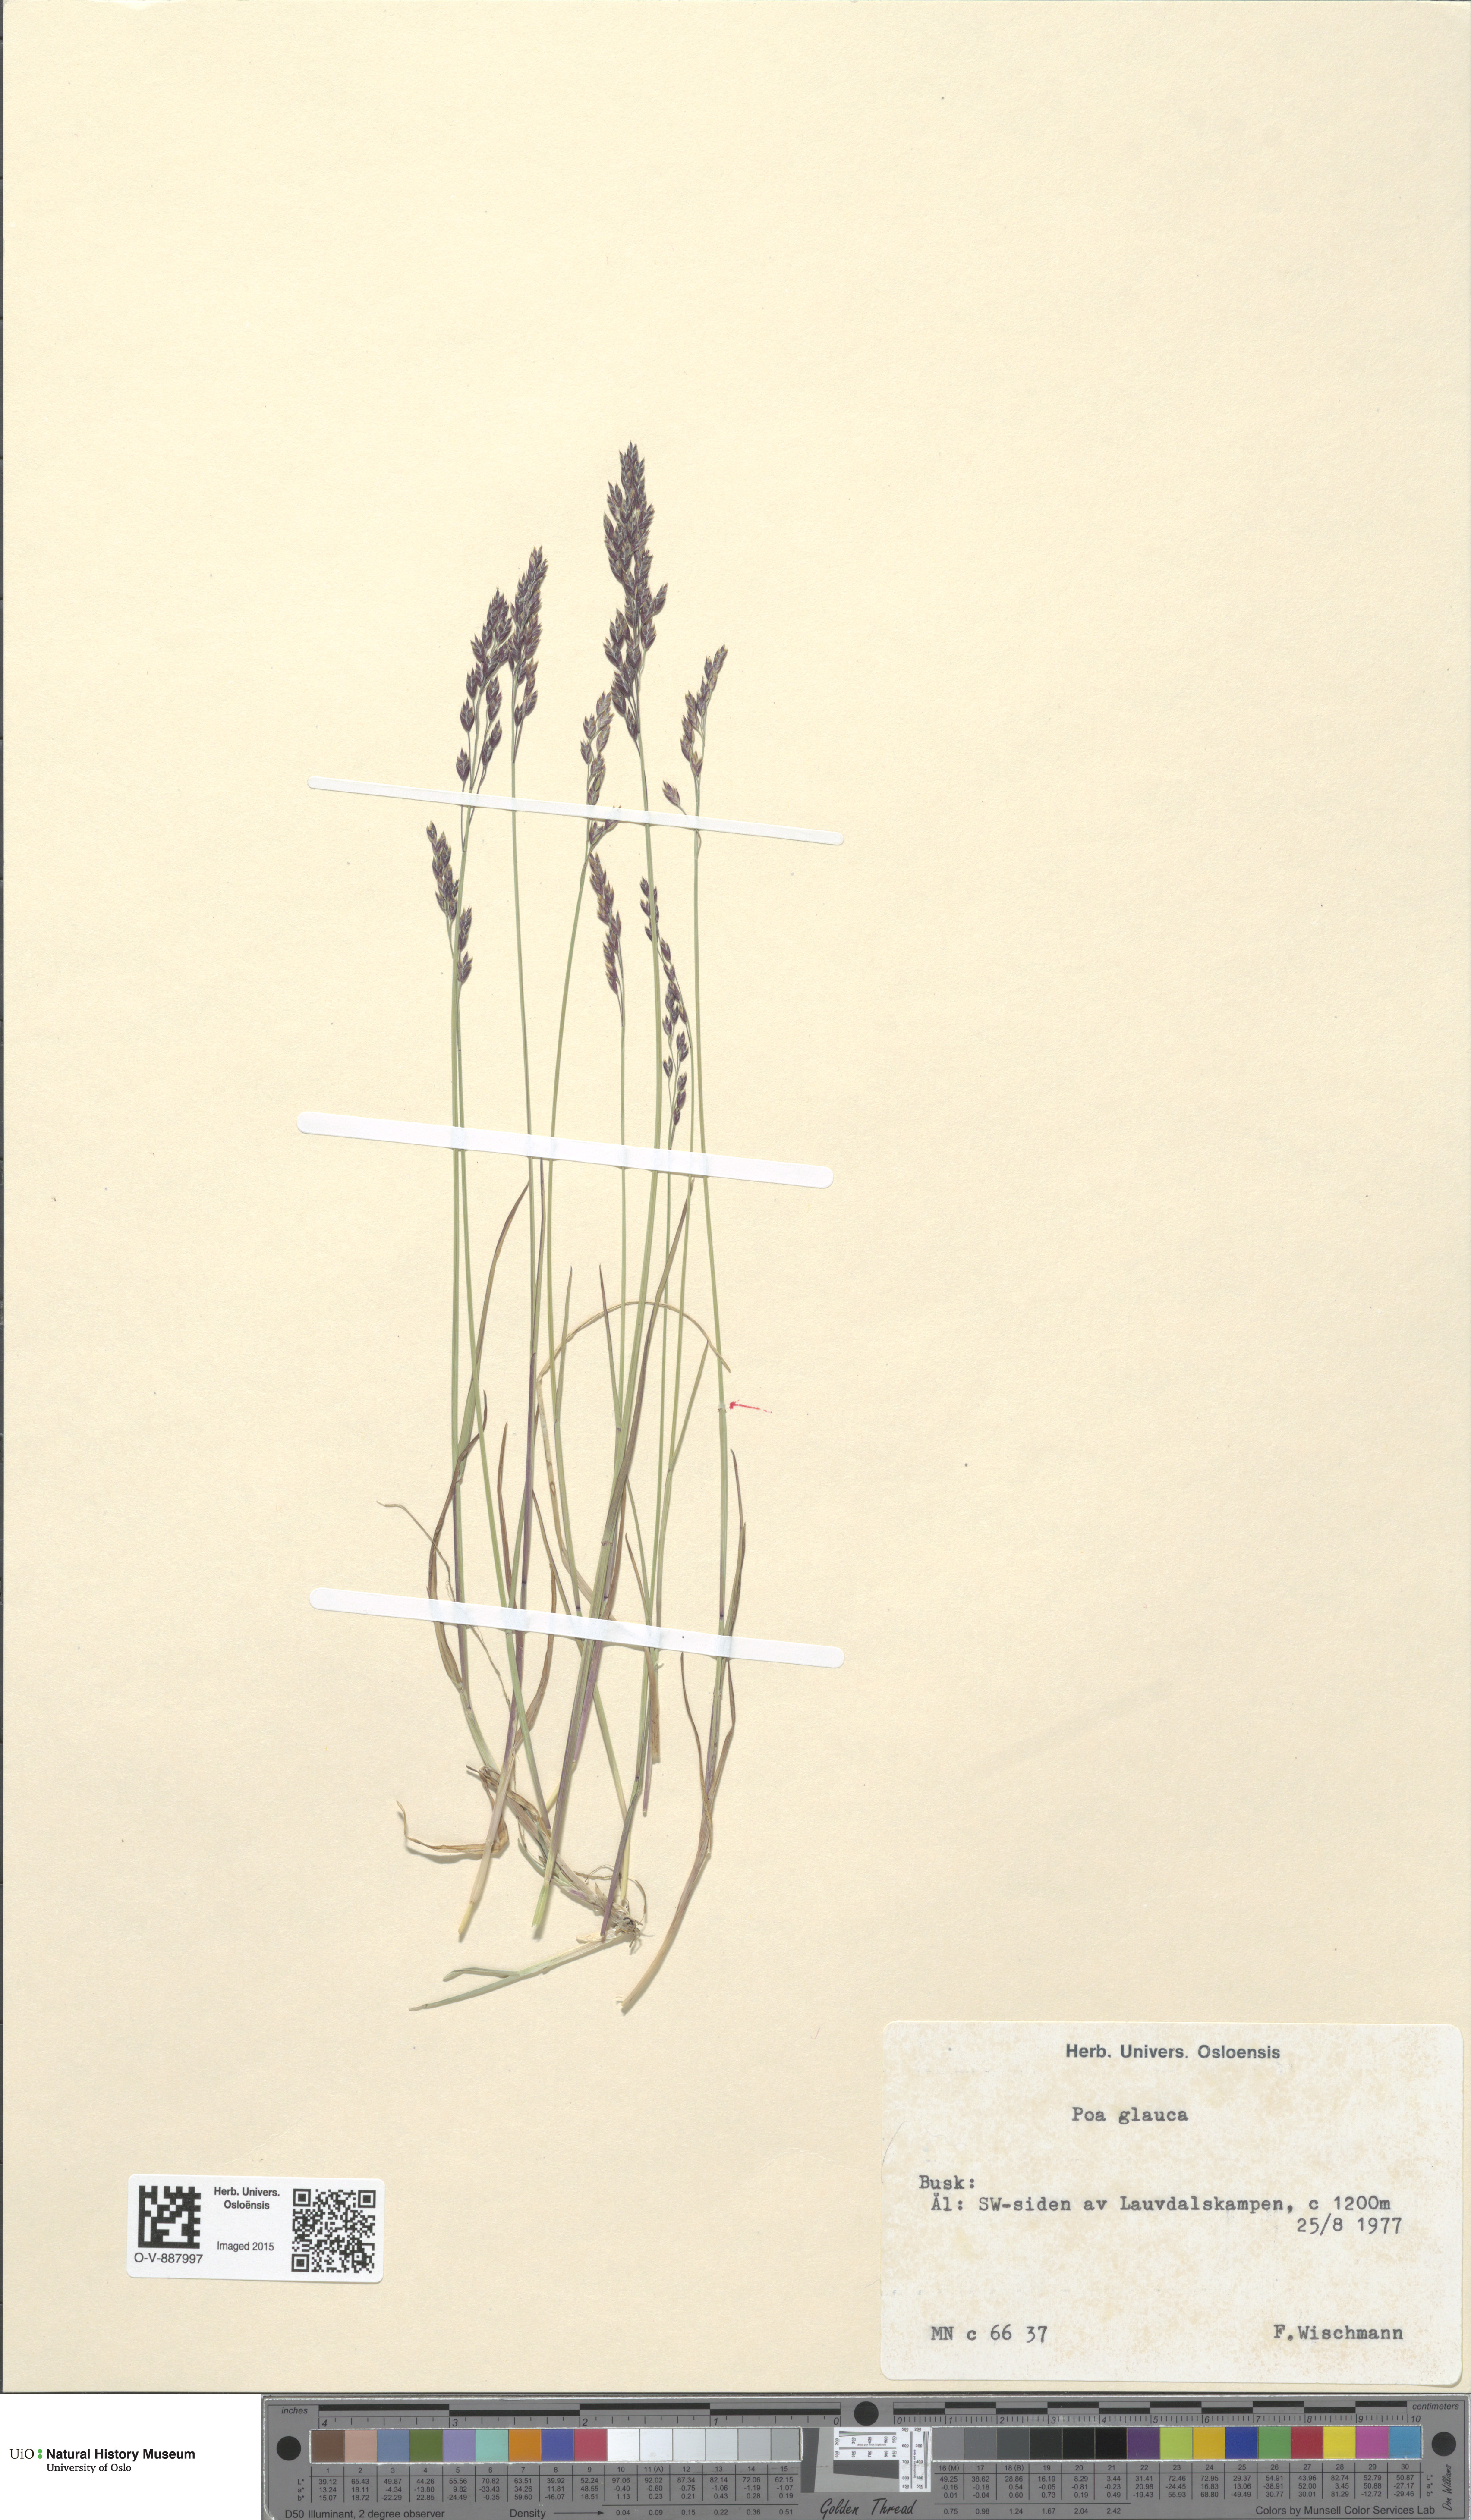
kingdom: Plantae
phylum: Tracheophyta
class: Liliopsida
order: Poales
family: Poaceae
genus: Poa
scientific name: Poa glauca
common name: Glaucous bluegrass
